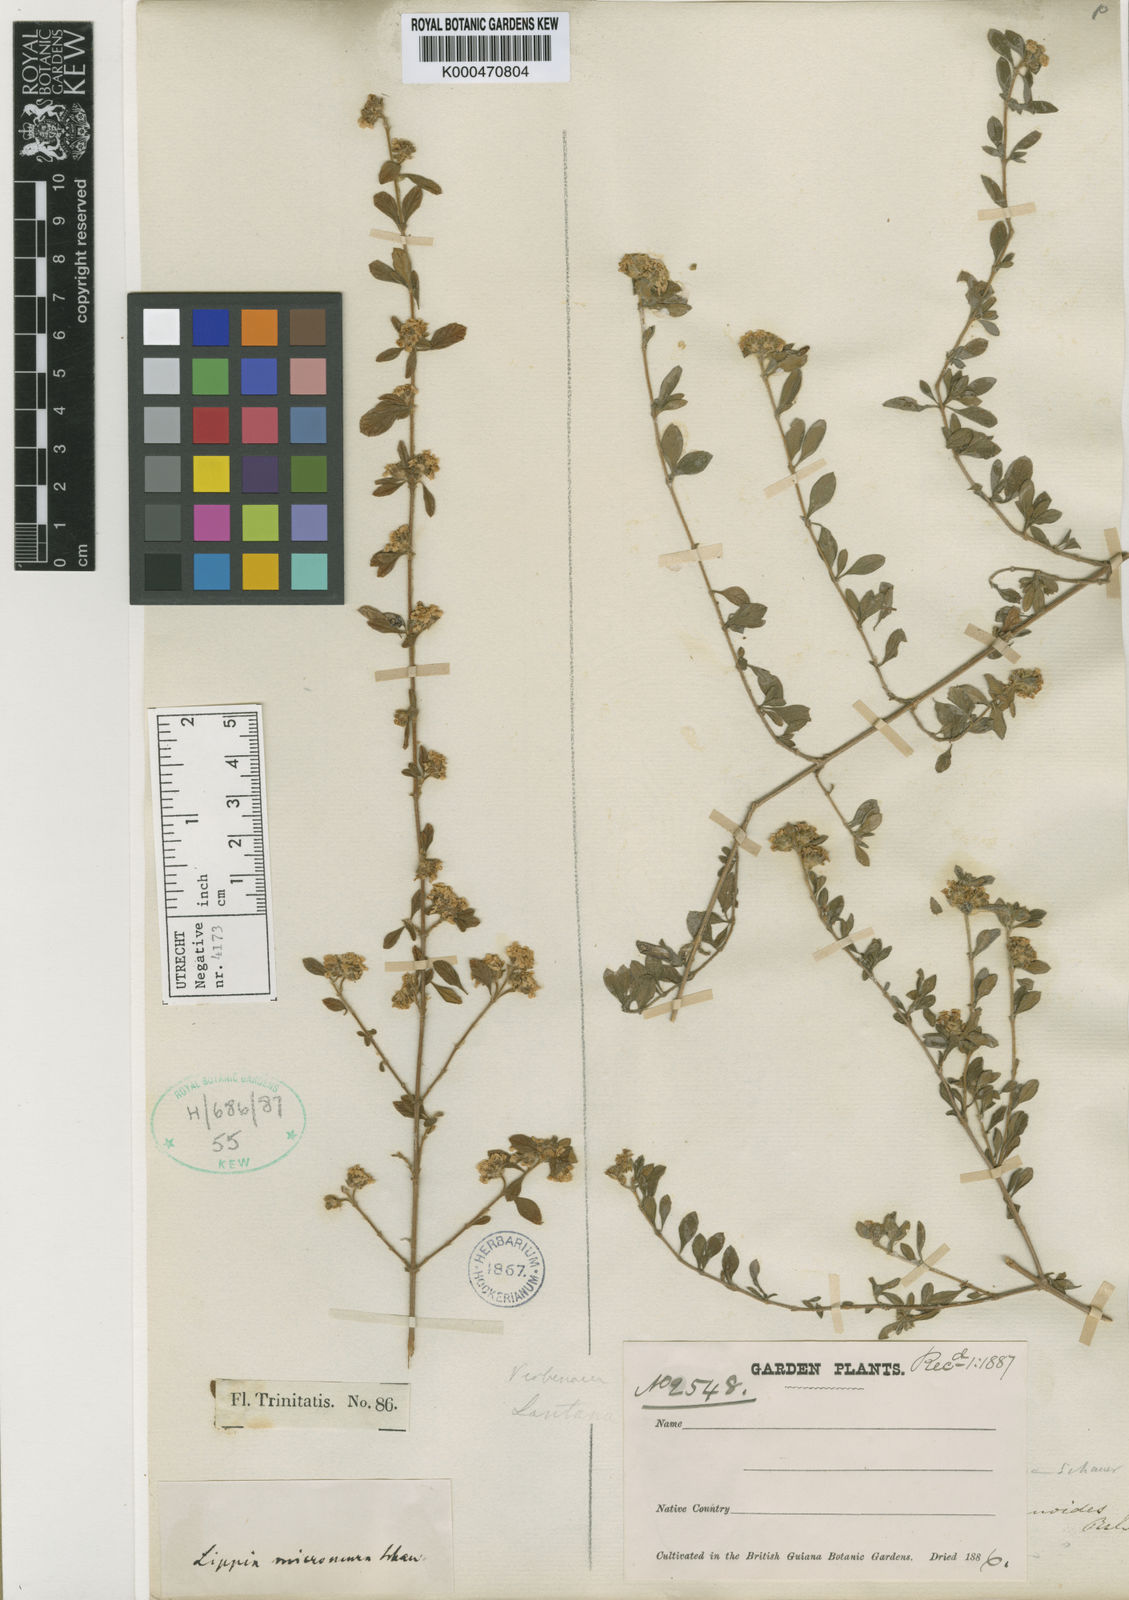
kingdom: Plantae
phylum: Tracheophyta
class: Magnoliopsida
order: Lamiales
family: Verbenaceae
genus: Lippia
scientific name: Lippia micromera
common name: Puerto rican oregano
